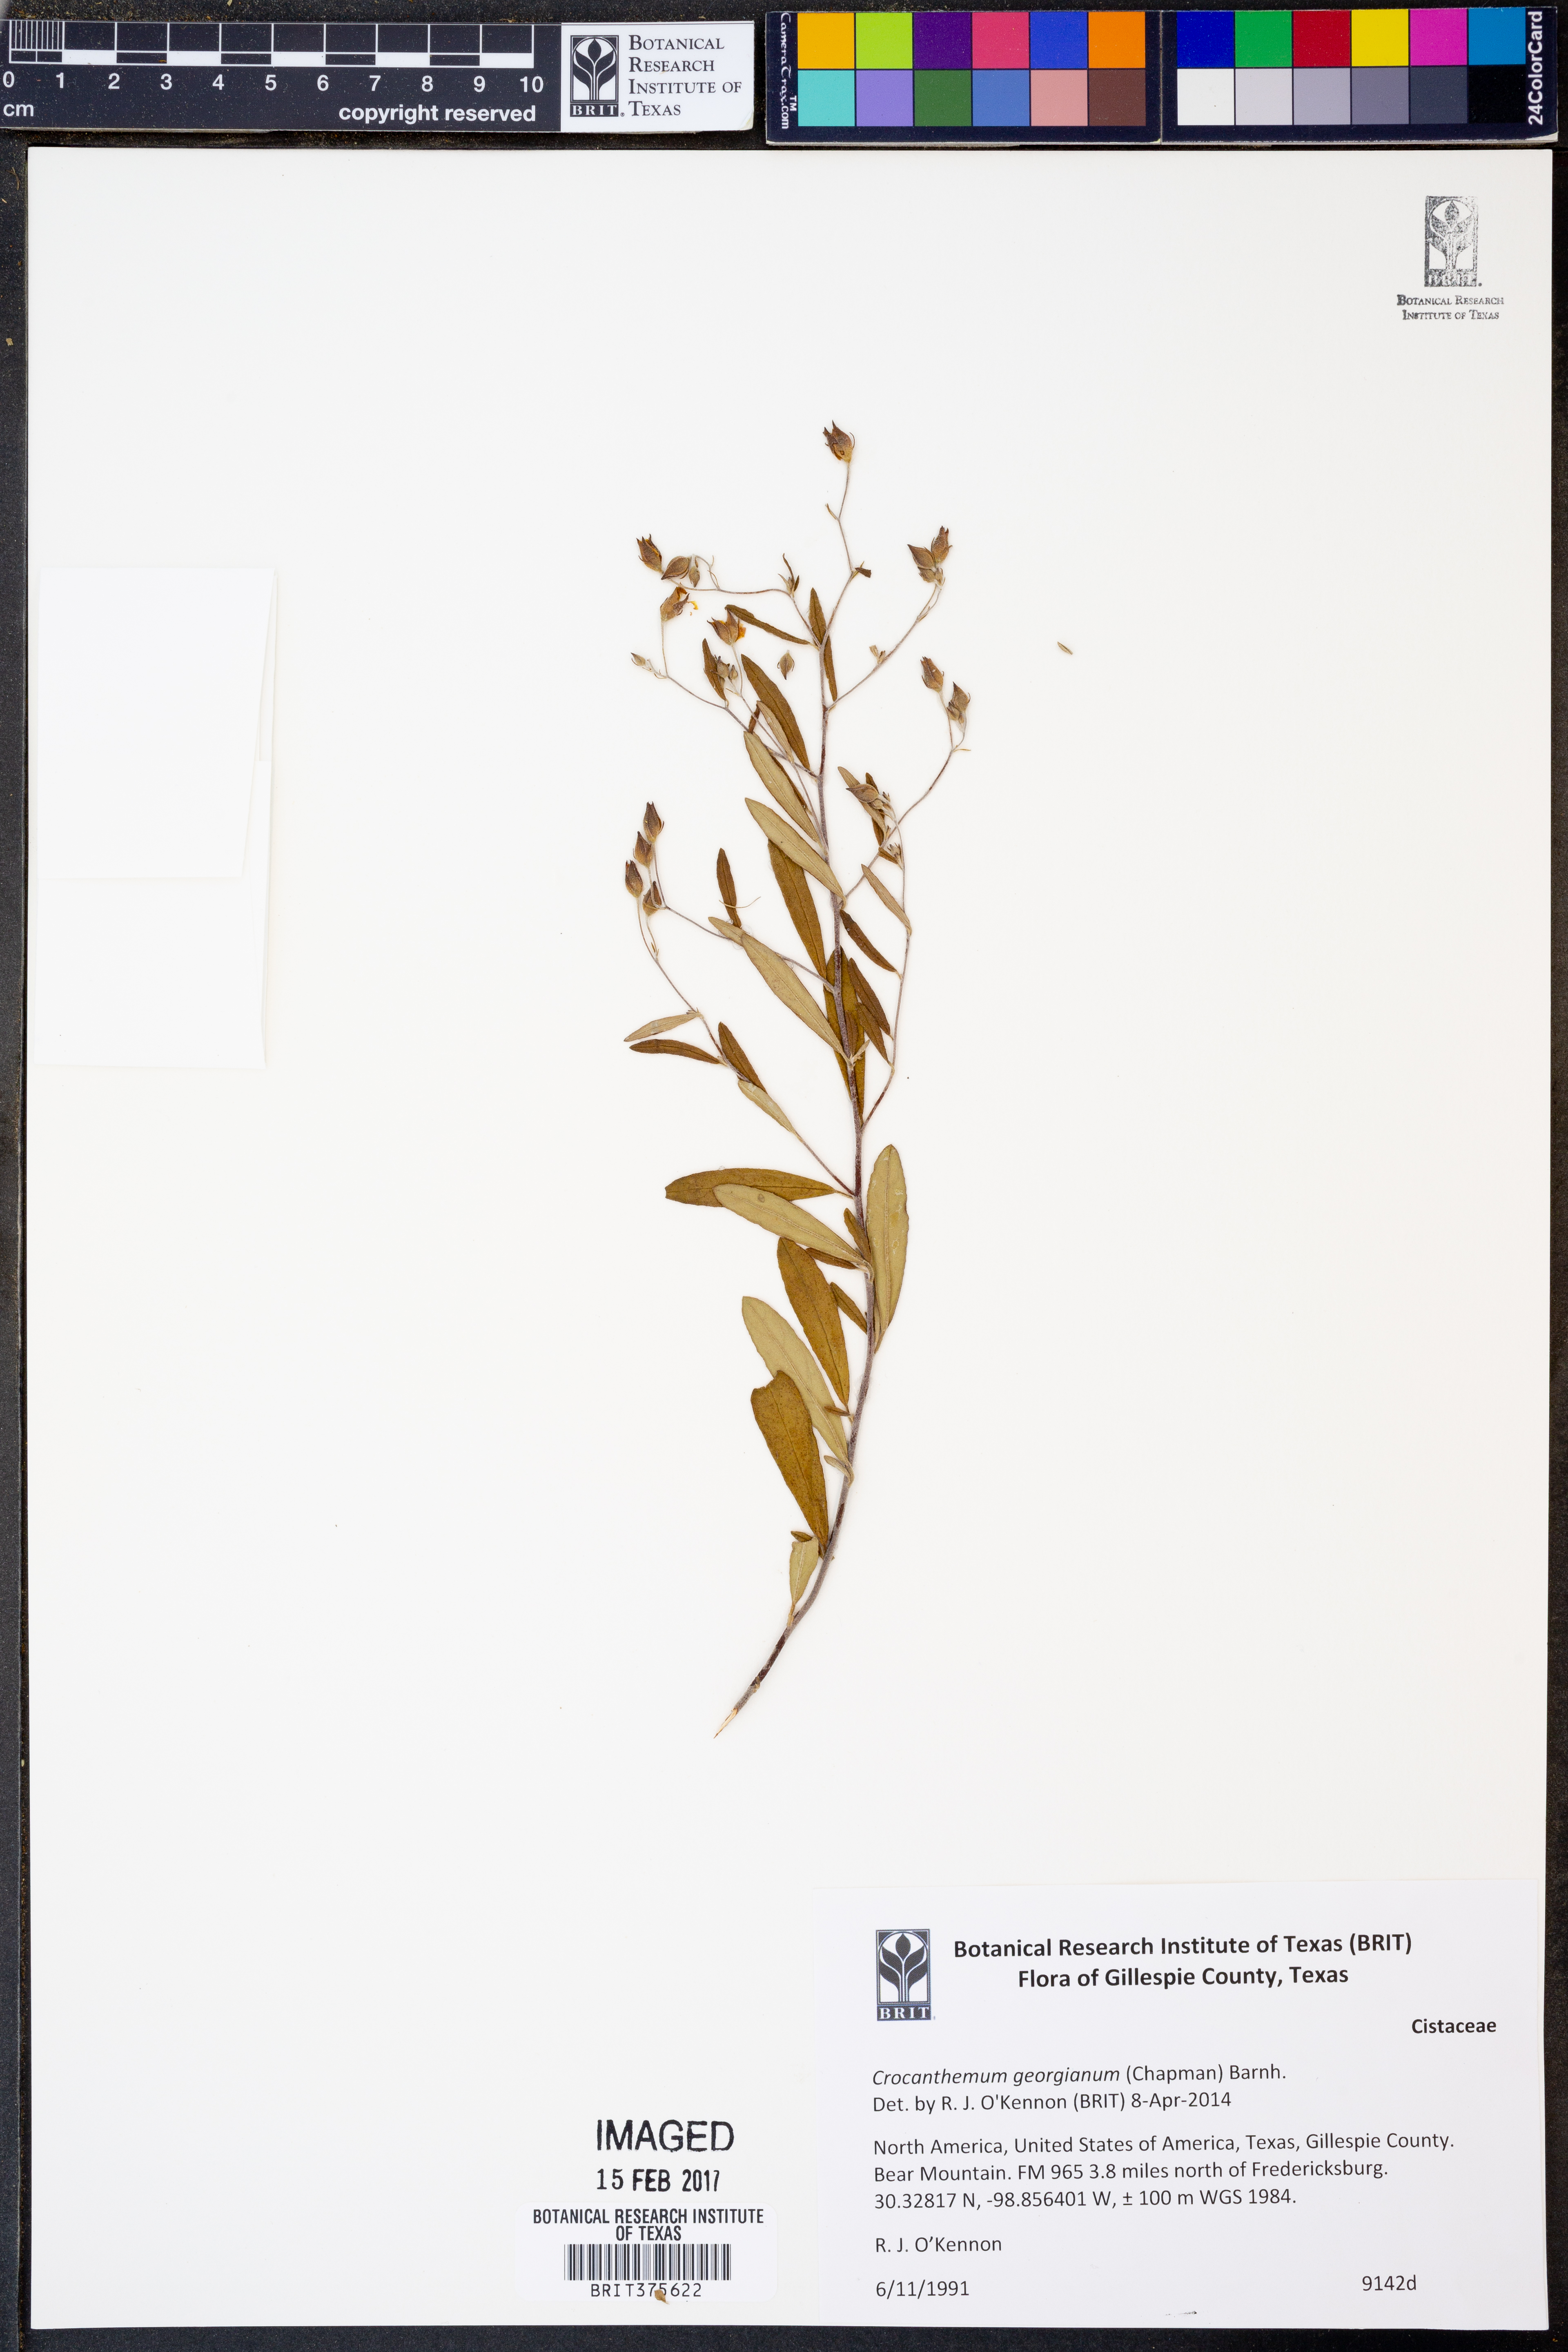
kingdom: Plantae
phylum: Tracheophyta
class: Magnoliopsida
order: Malvales
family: Cistaceae
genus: Crocanthemum
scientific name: Crocanthemum georgianum
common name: Georgia frostweed
